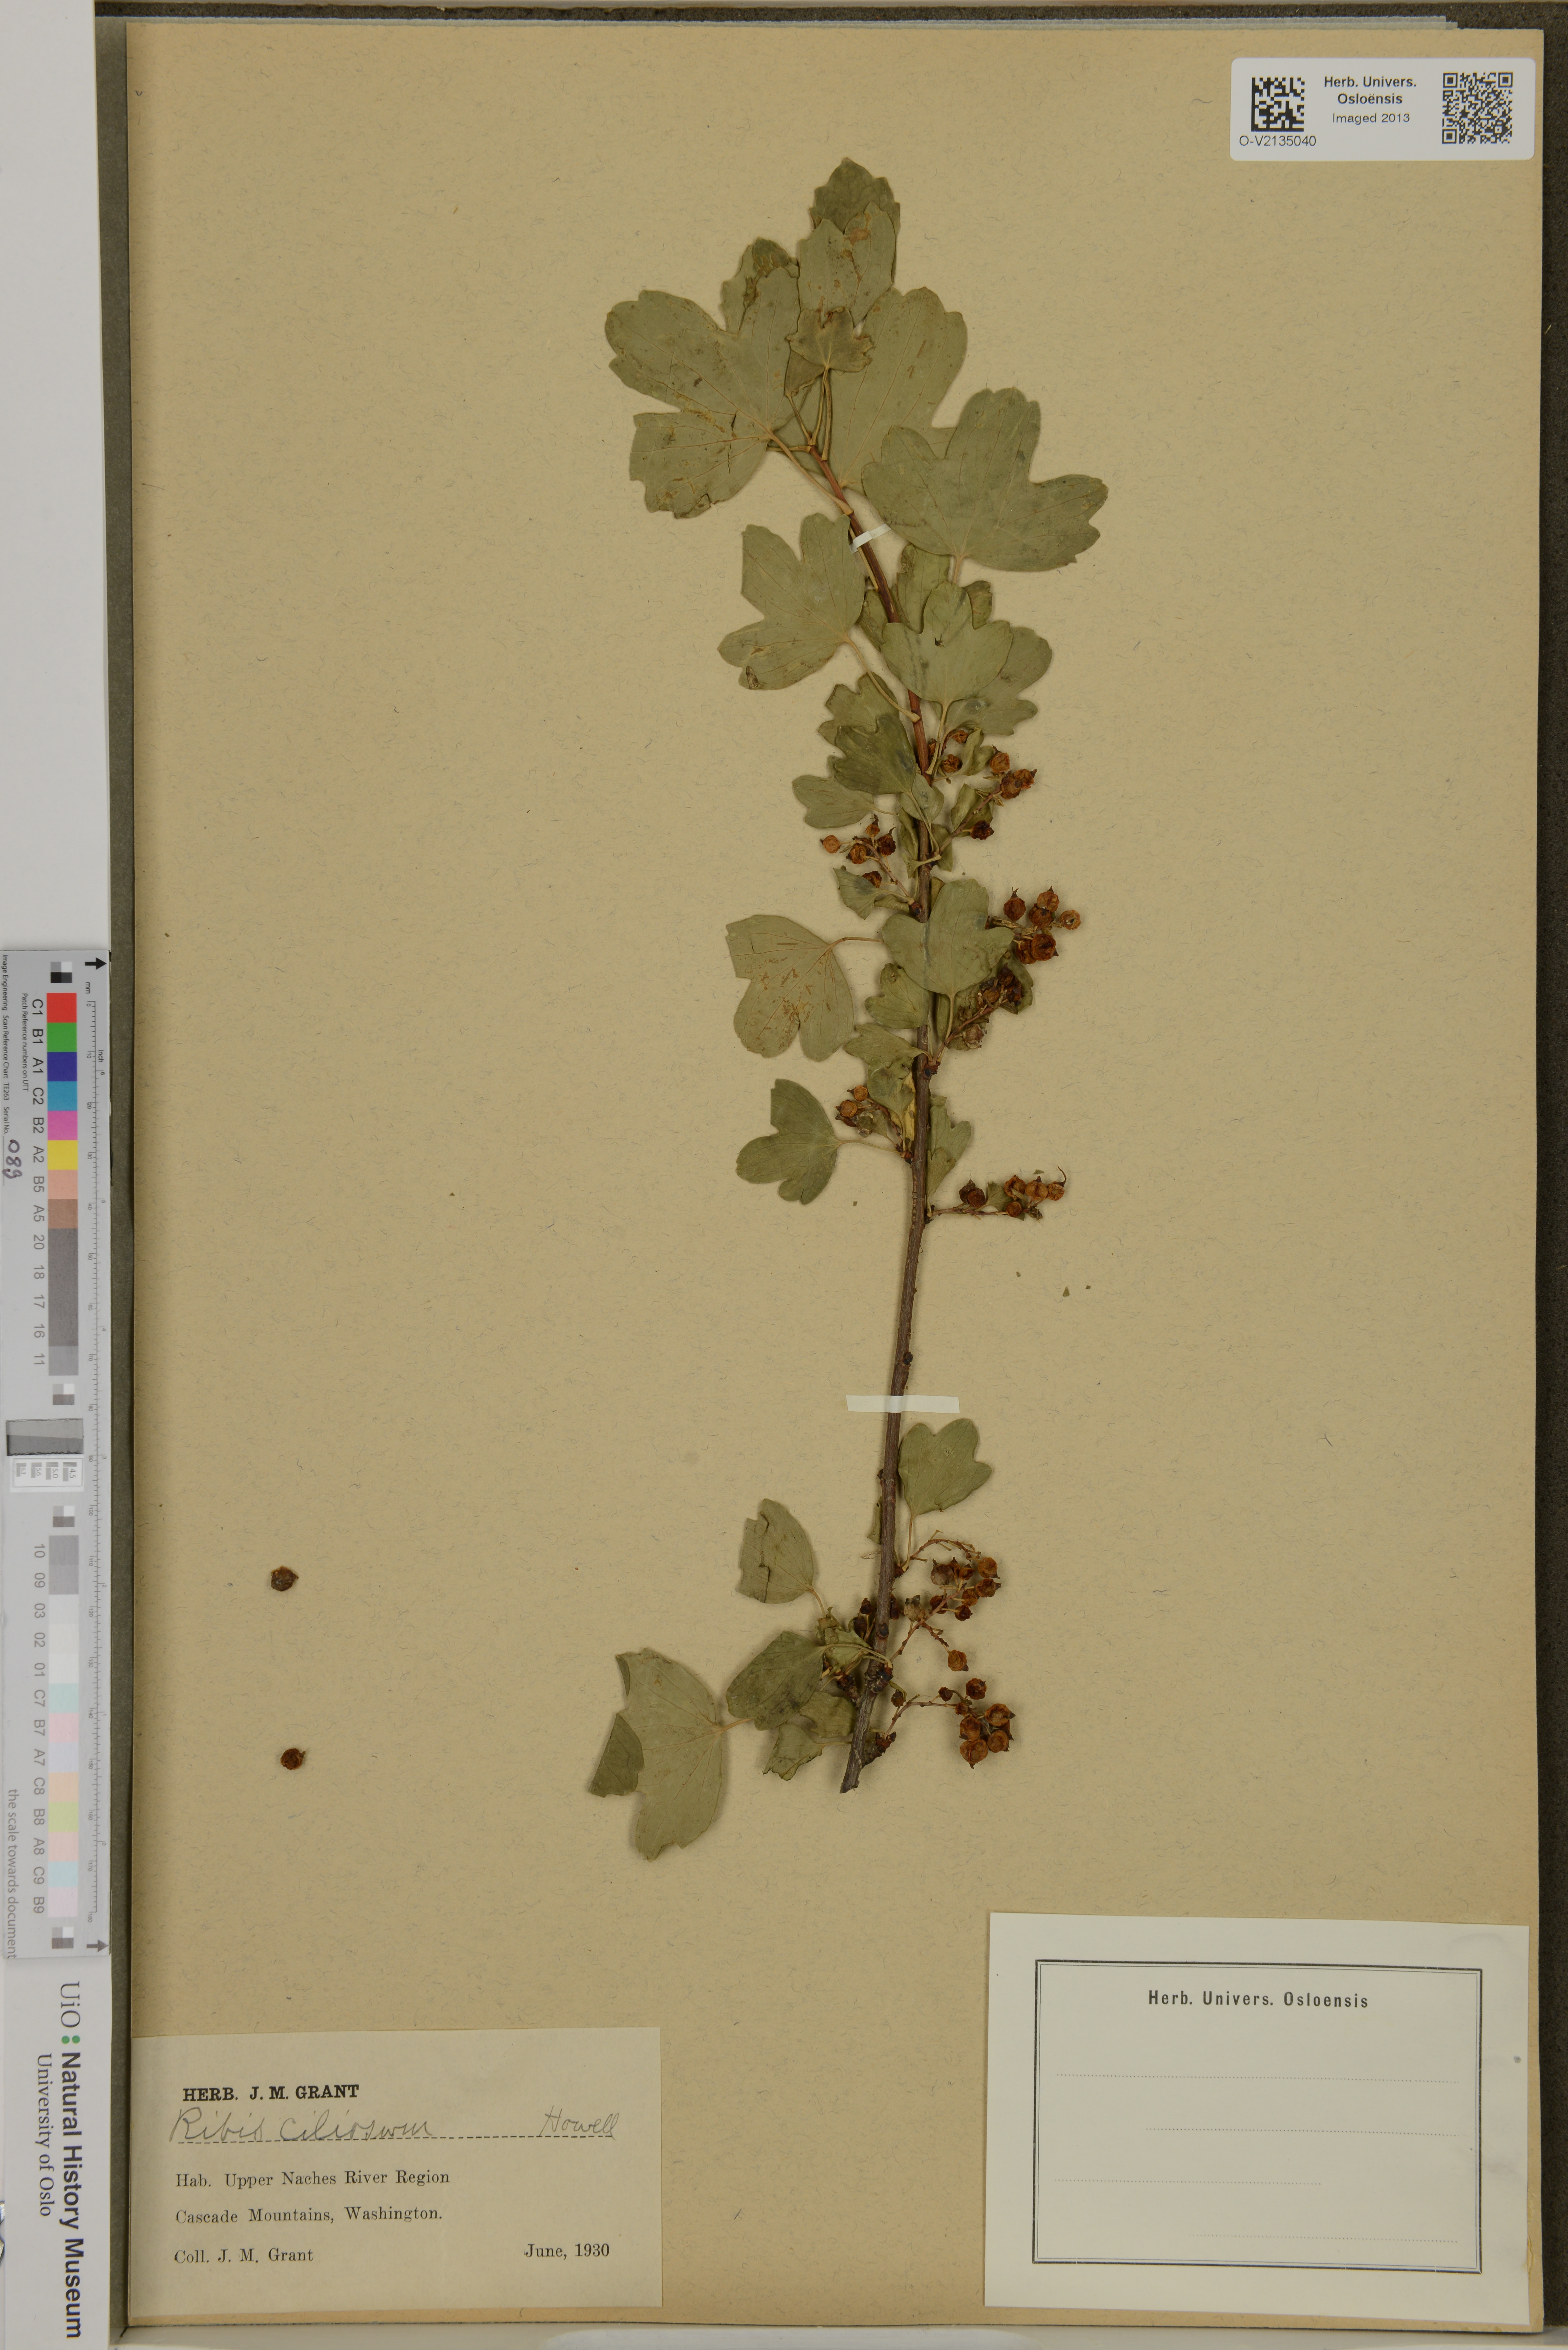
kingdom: Plantae
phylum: Tracheophyta
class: Magnoliopsida
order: Saxifragales
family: Grossulariaceae
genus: Ribes
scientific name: Ribes triste
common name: Swamp red currant
